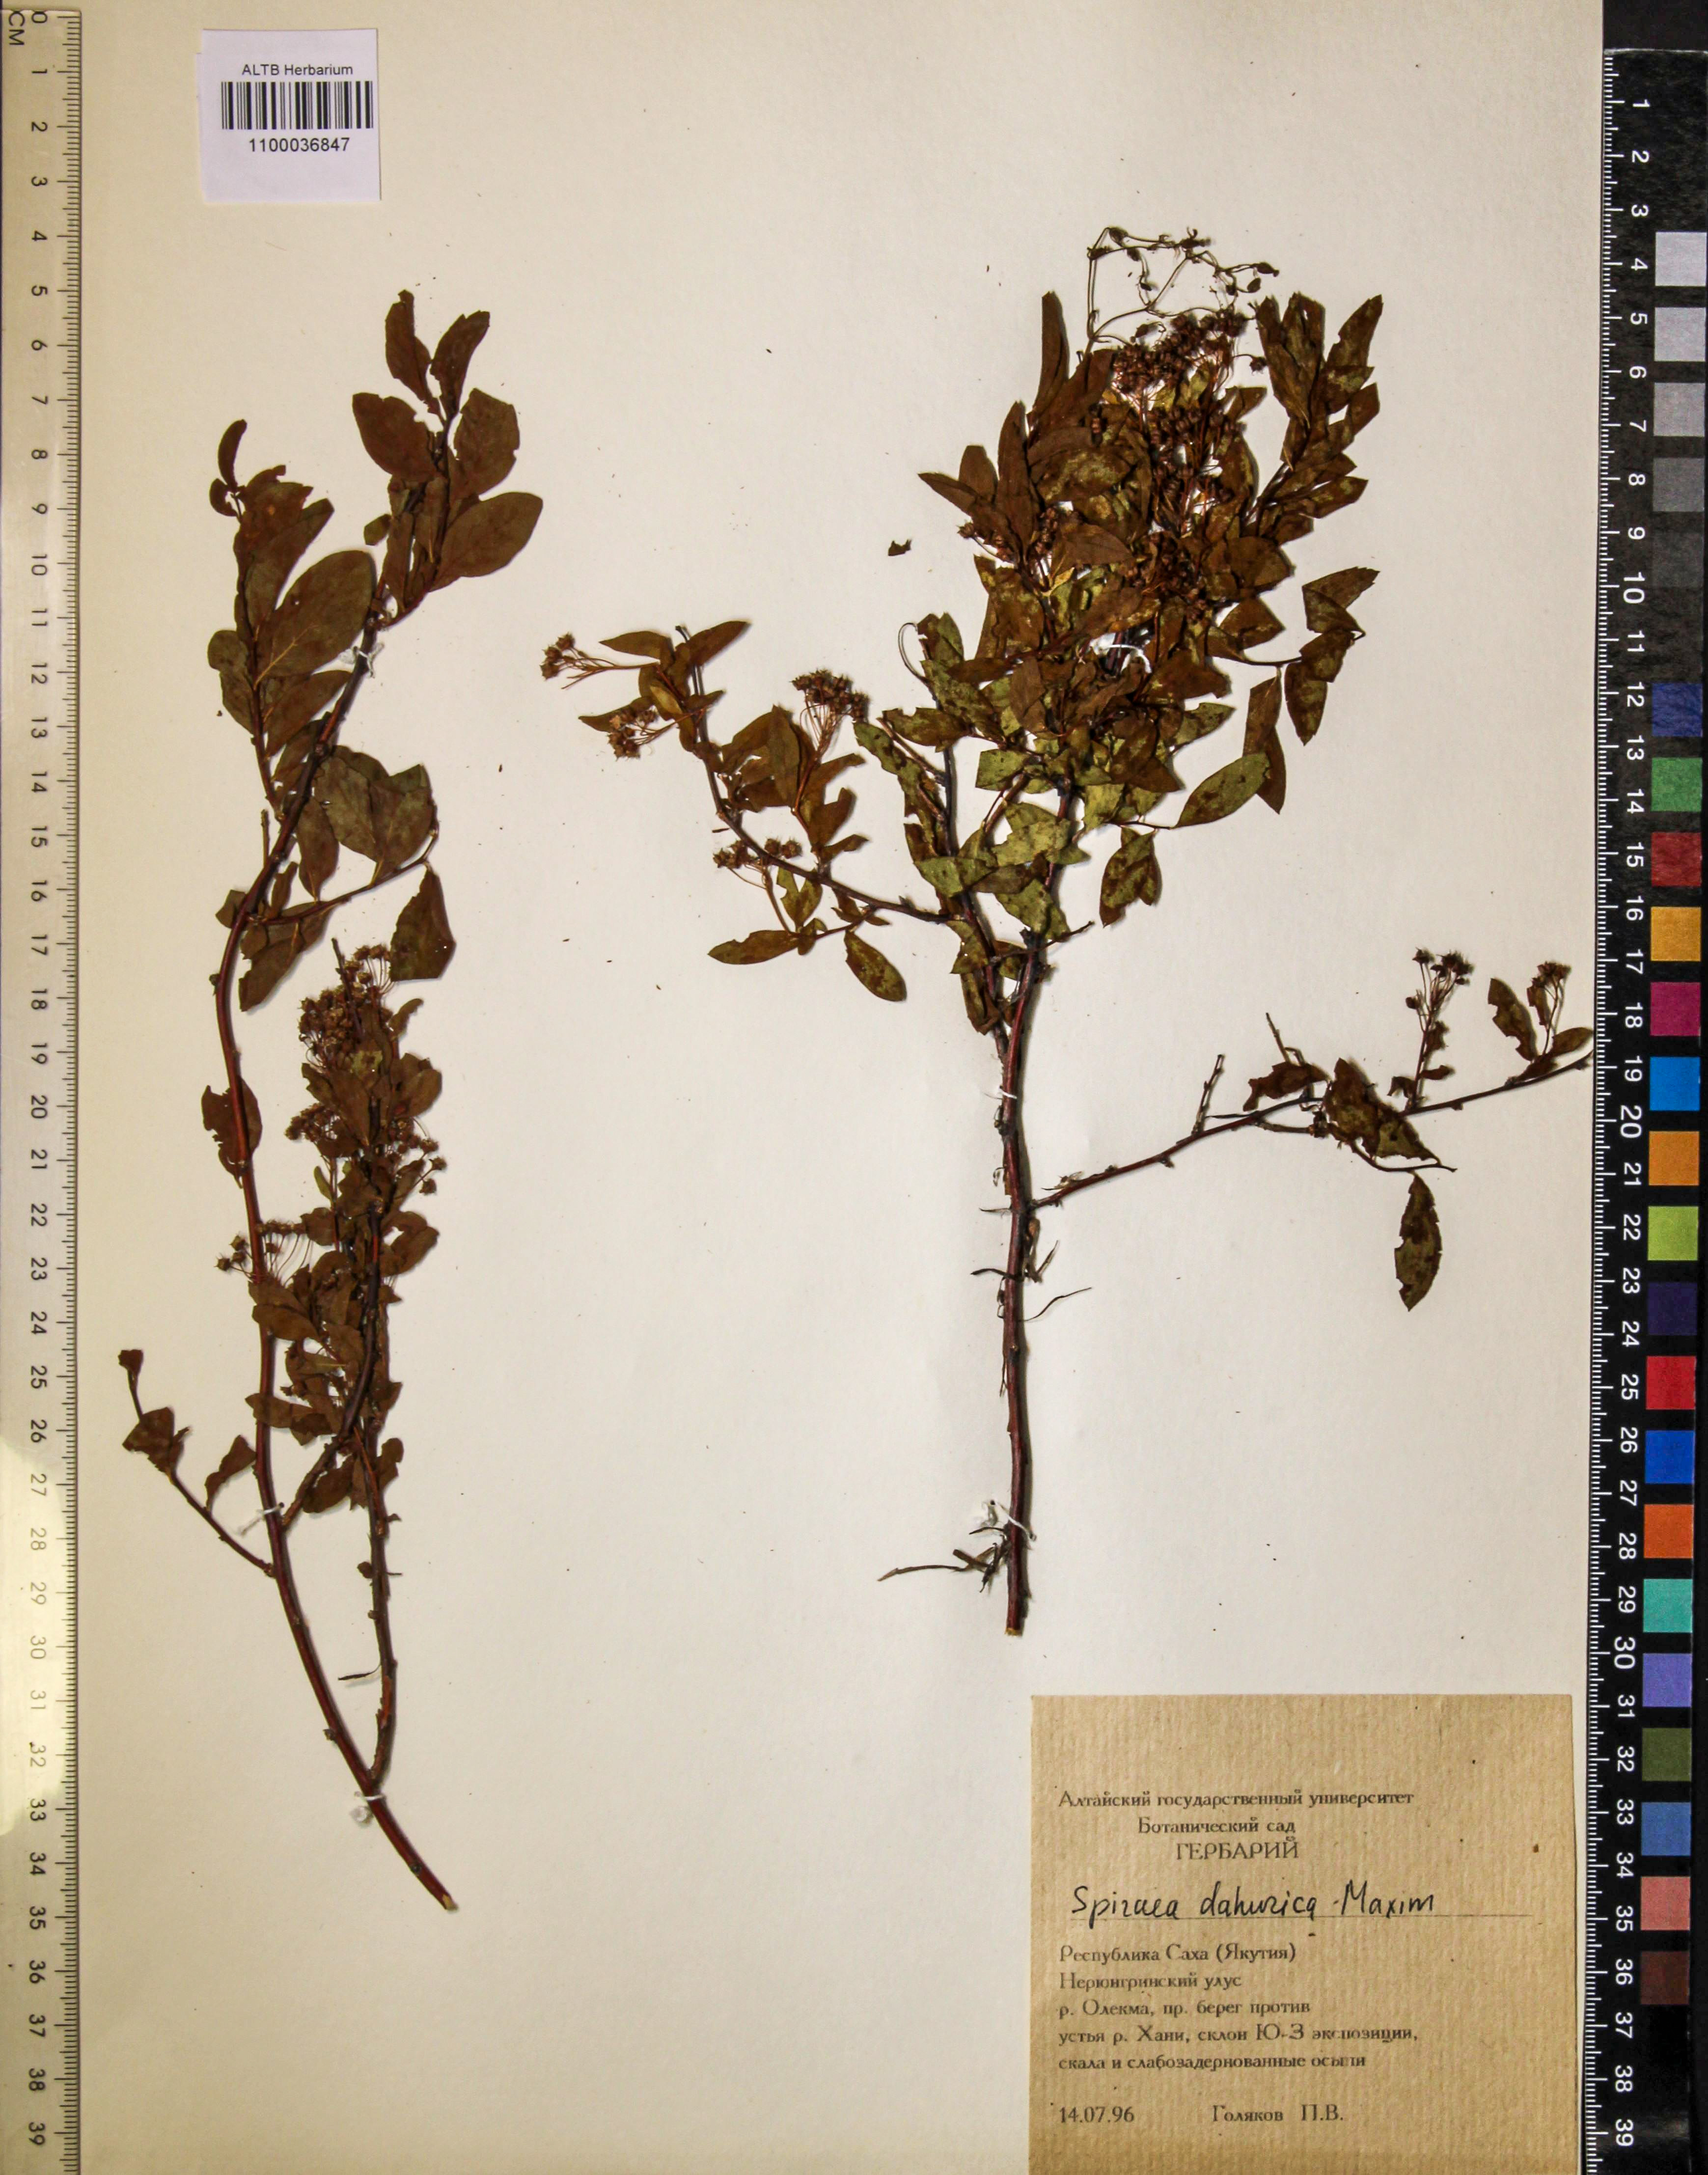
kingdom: Plantae
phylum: Tracheophyta
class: Magnoliopsida
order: Rosales
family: Rosaceae
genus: Spiraea
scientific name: Spiraea dahurica
